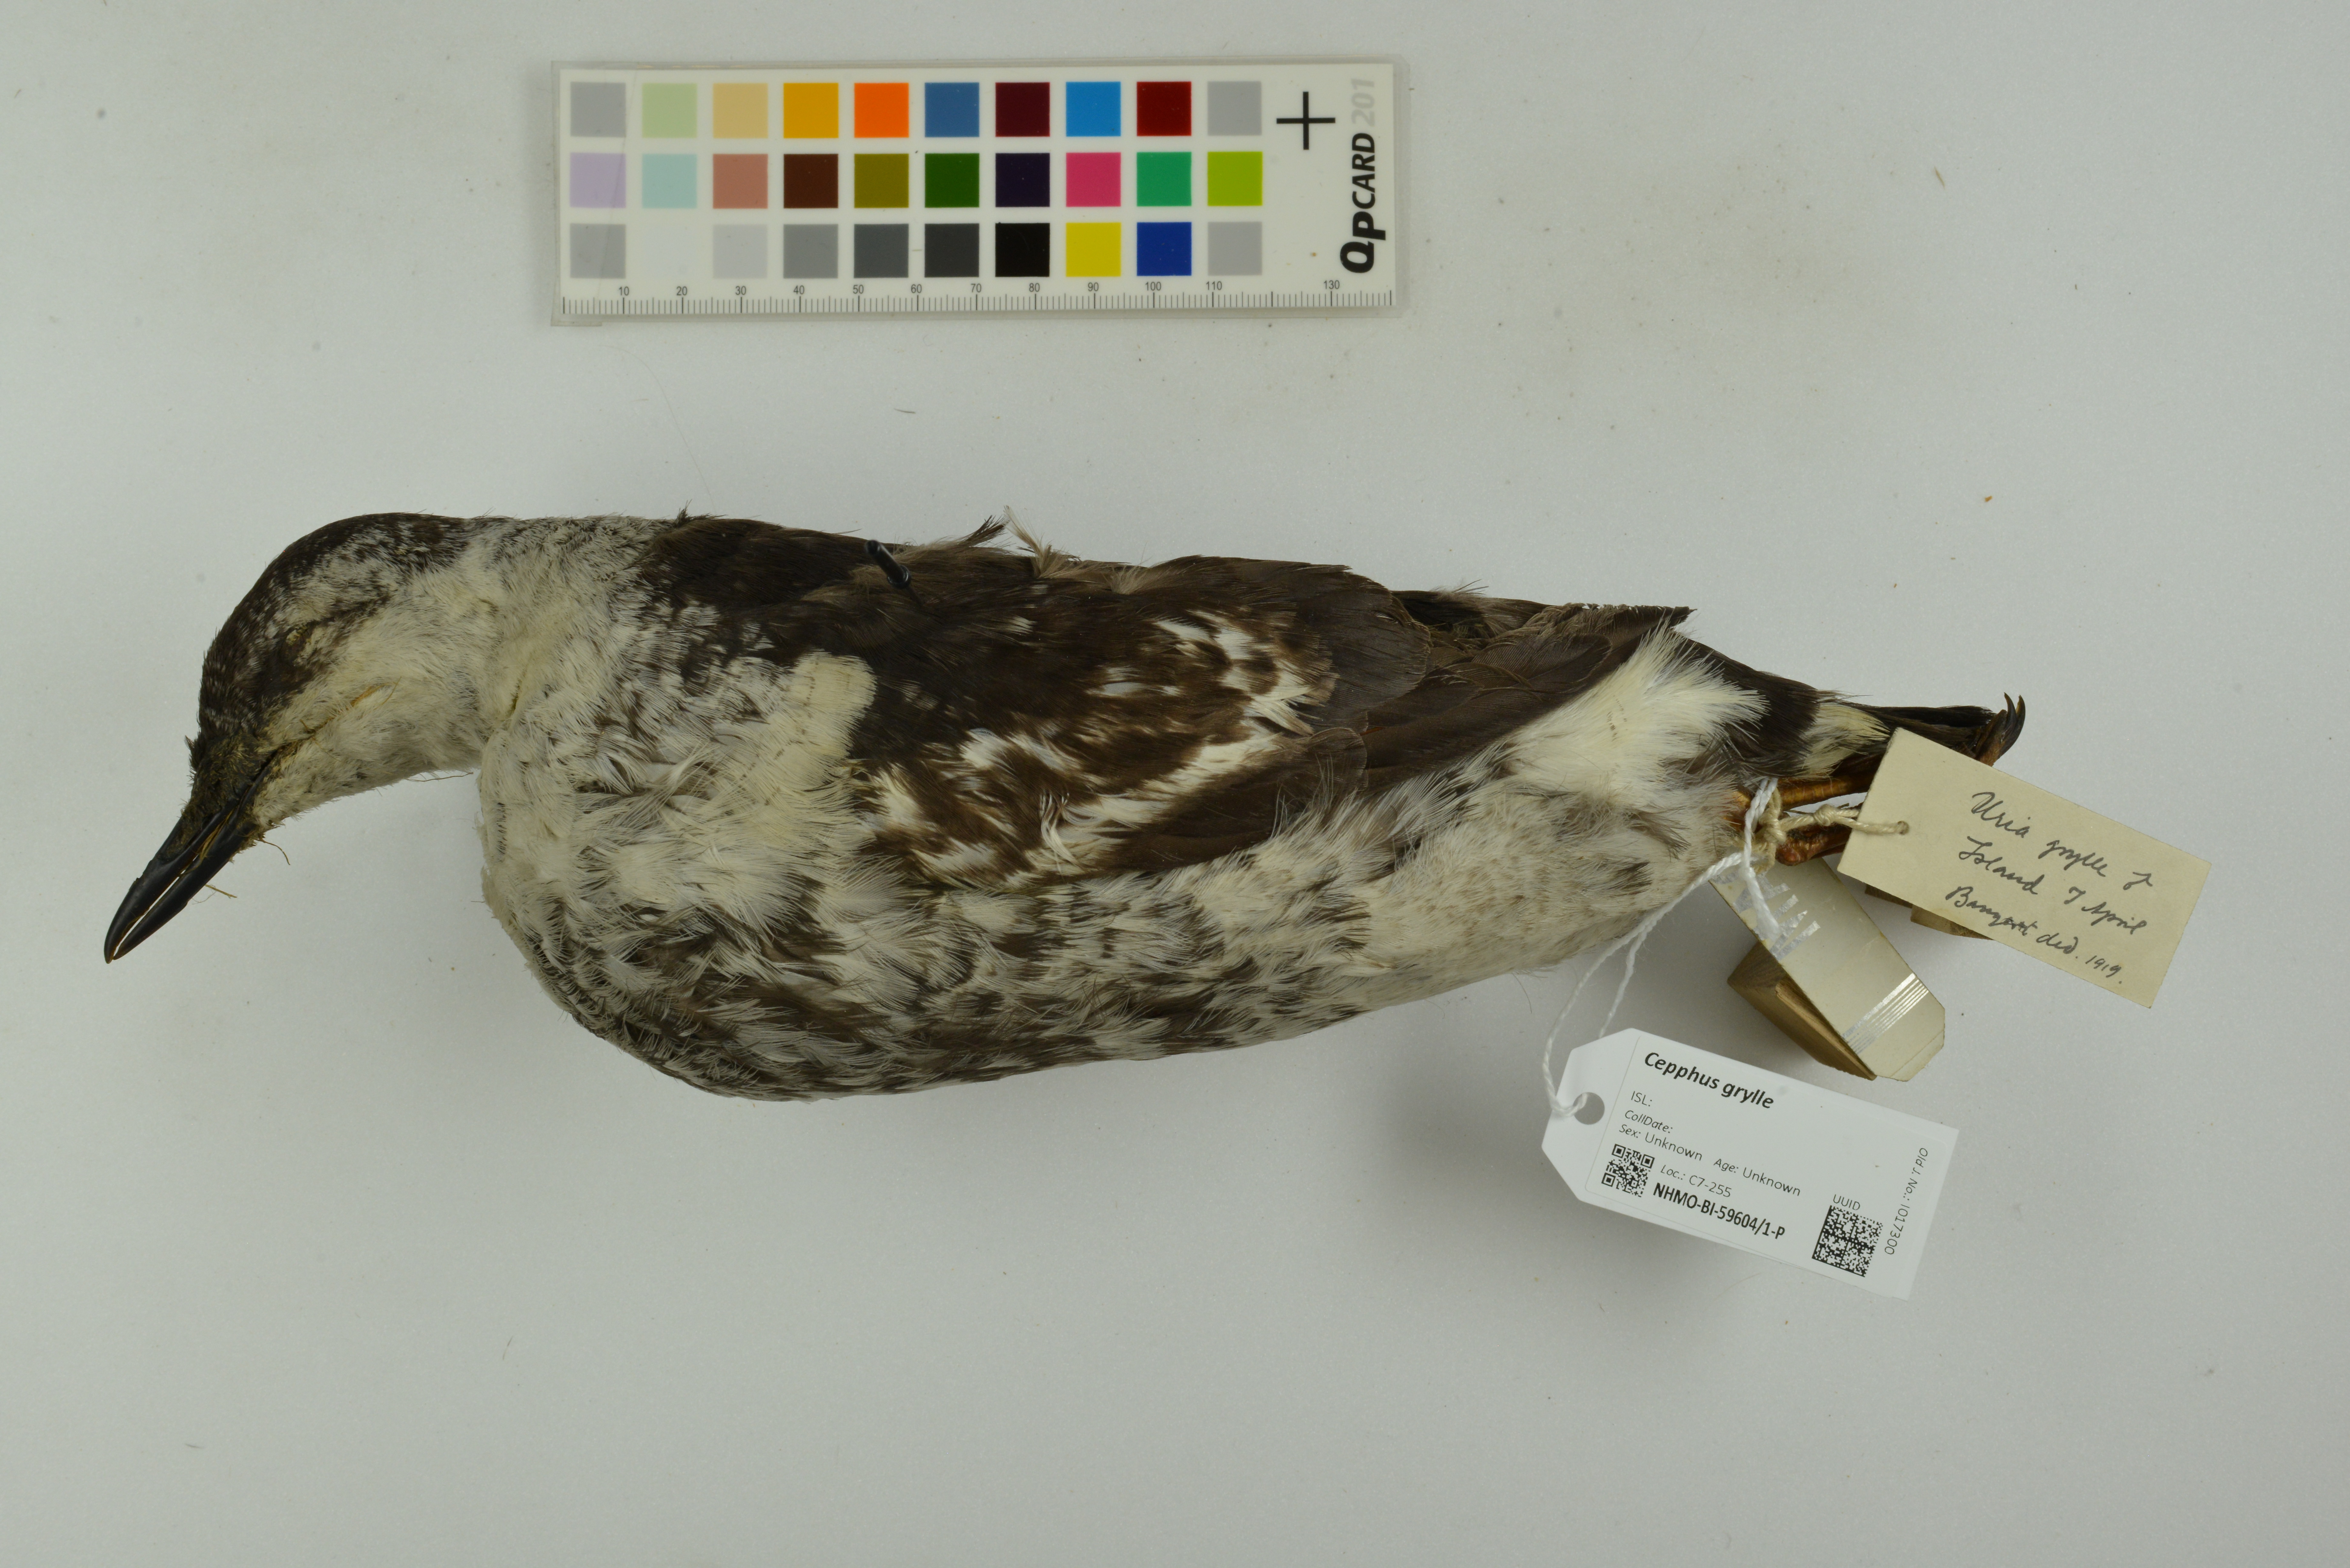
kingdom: Animalia
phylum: Chordata
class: Aves
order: Charadriiformes
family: Alcidae
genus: Cepphus
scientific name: Cepphus grylle
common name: Black guillemot
